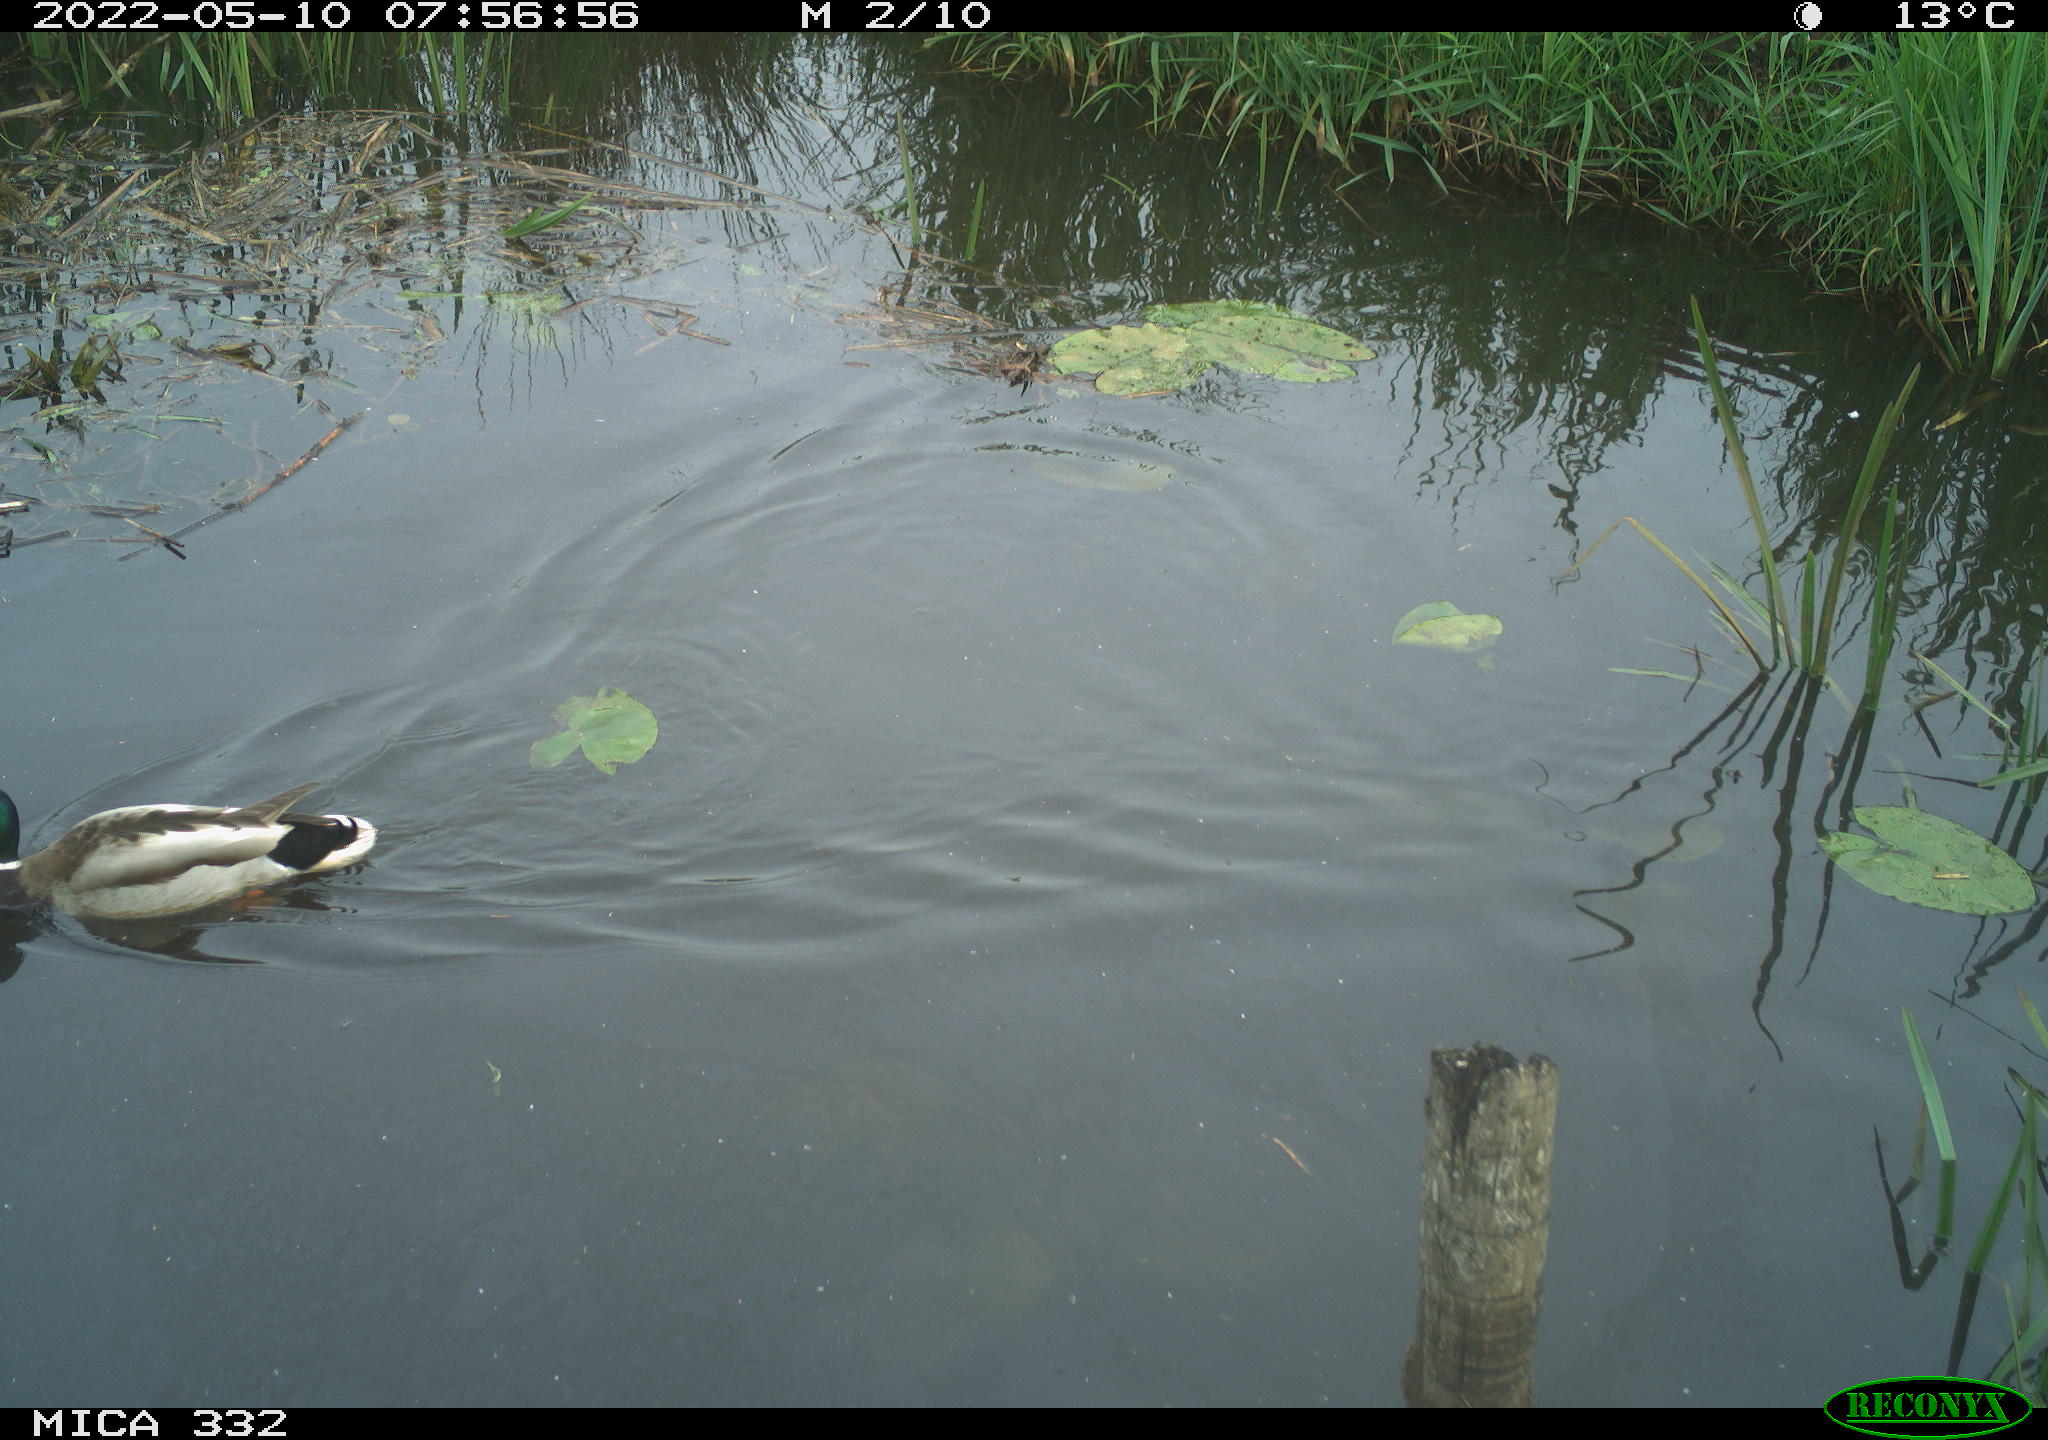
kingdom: Animalia
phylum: Chordata
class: Aves
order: Anseriformes
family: Anatidae
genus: Anas
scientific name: Anas platyrhynchos
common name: Mallard
